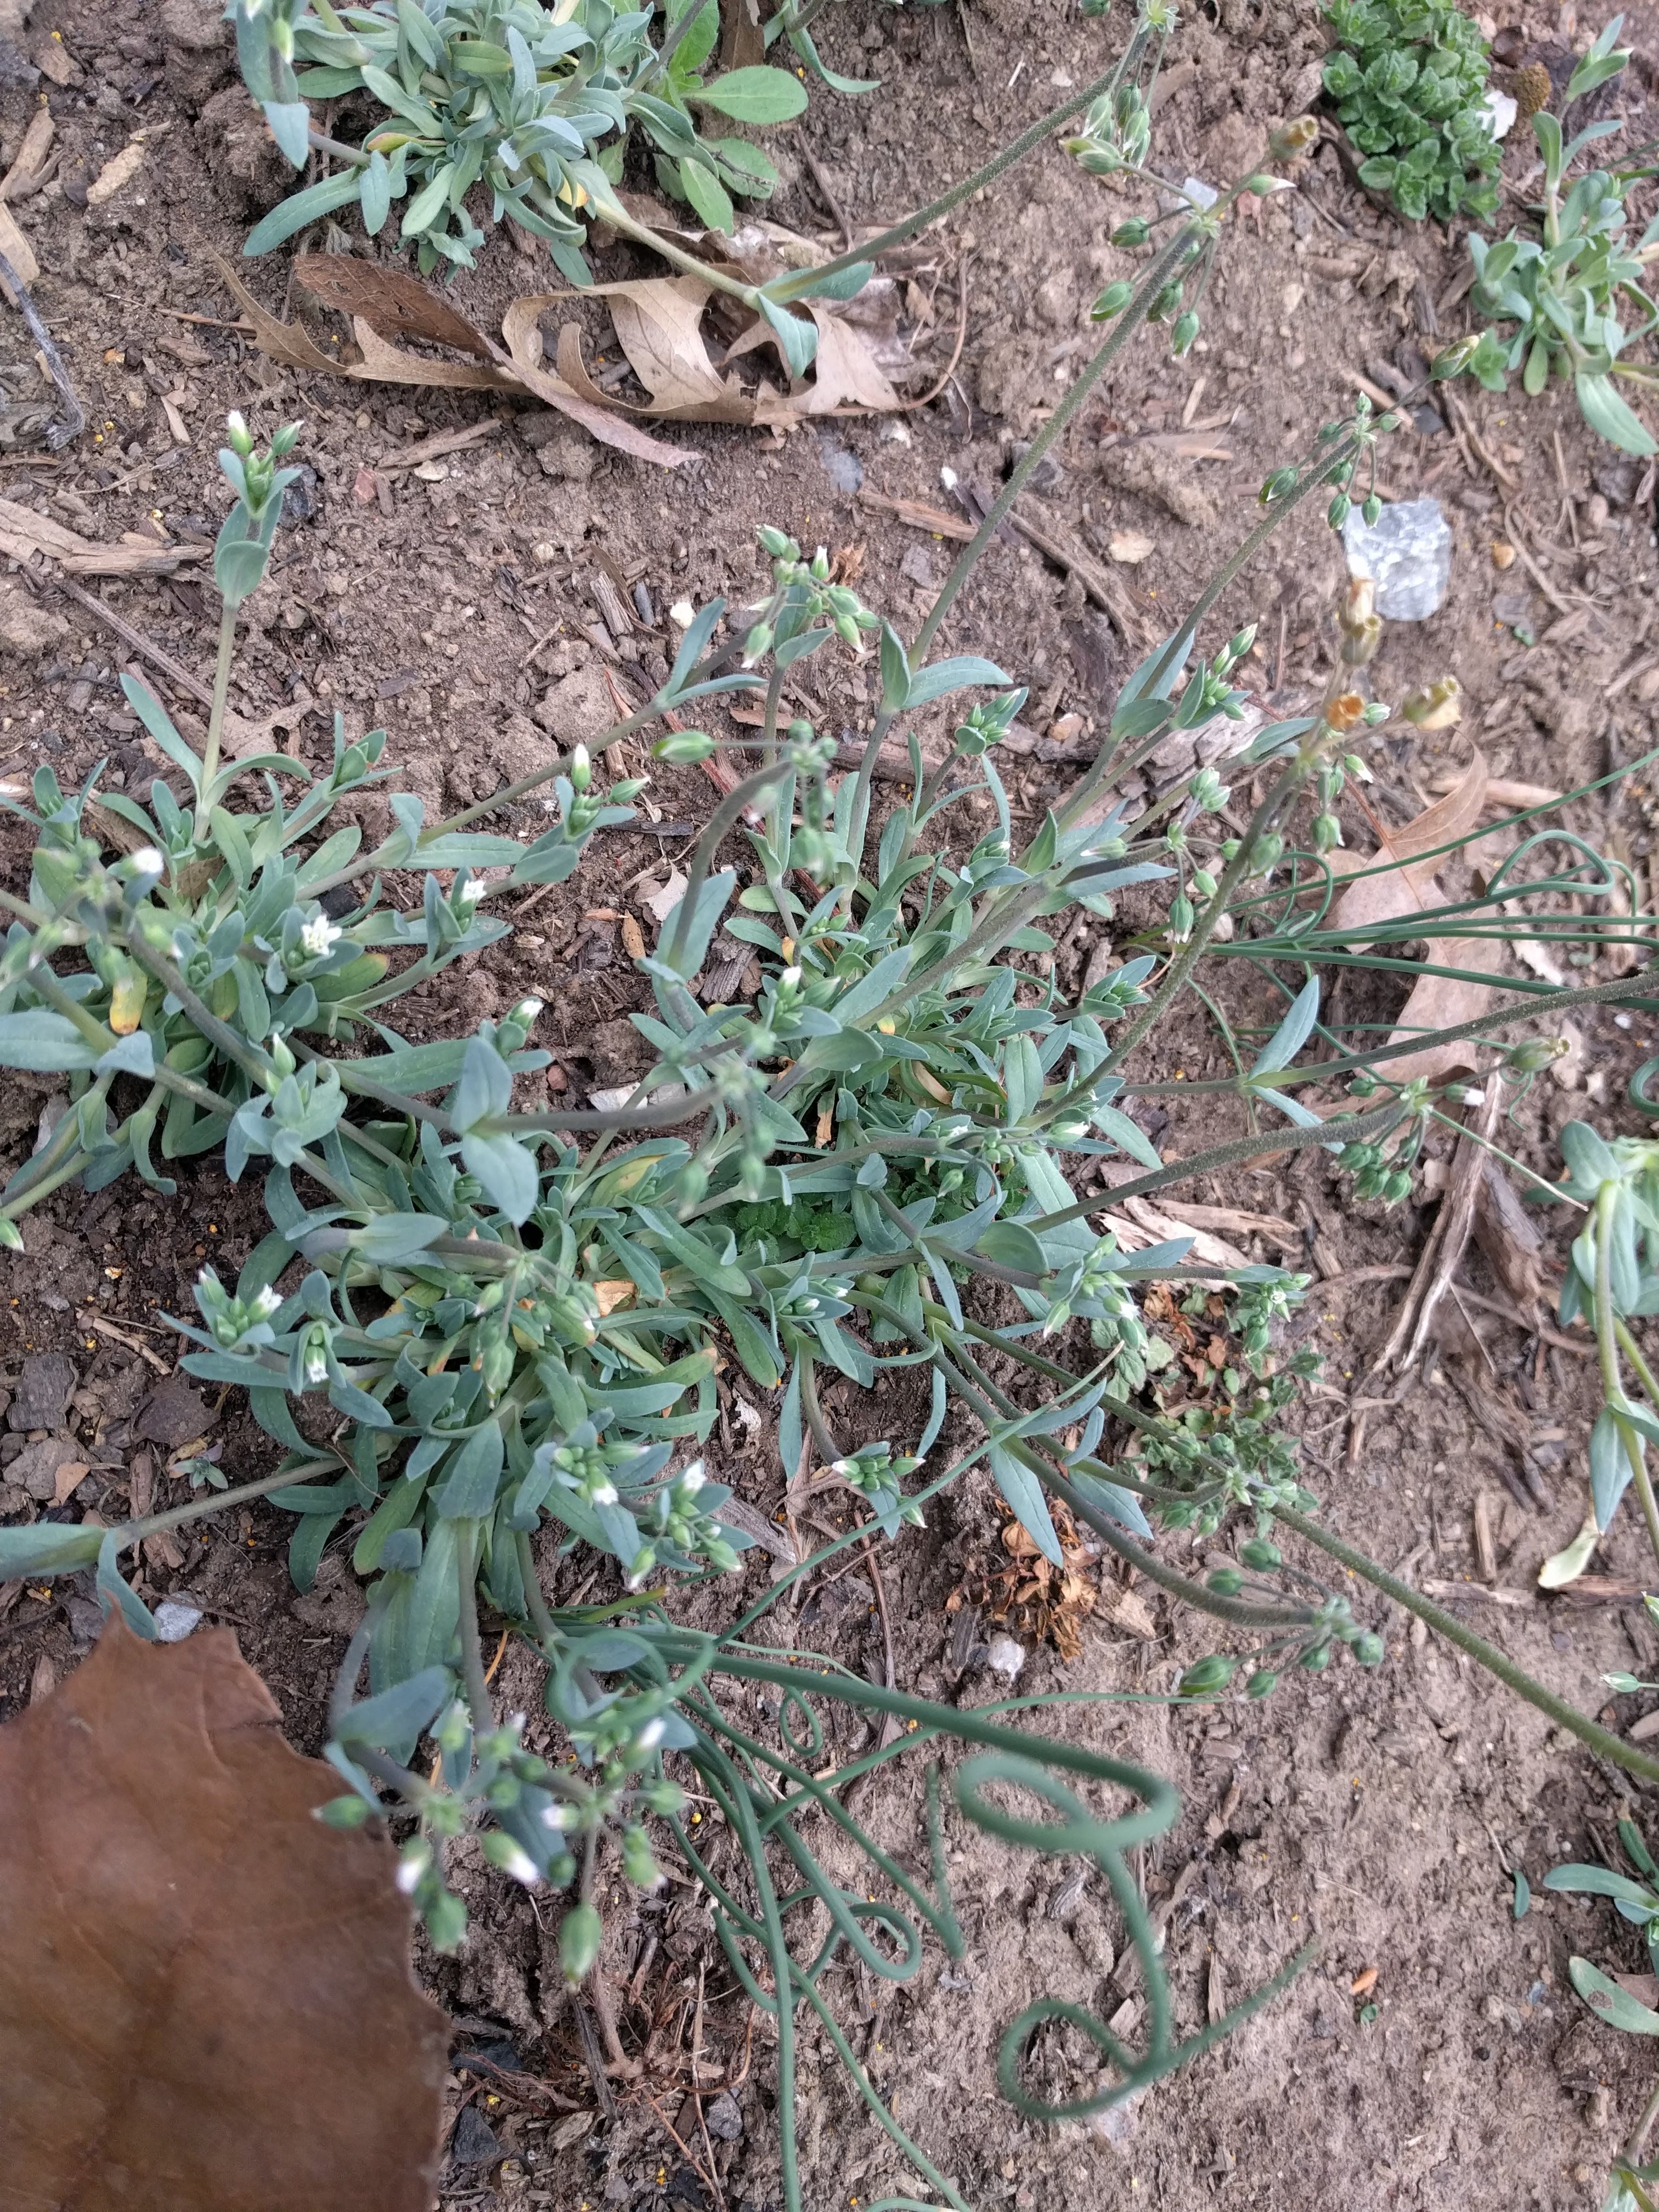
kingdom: Plantae
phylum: Tracheophyta
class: Magnoliopsida
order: Caryophyllales
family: Caryophyllaceae
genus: Holosteum
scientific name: Holosteum umbellatum
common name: Jagged chickweed
